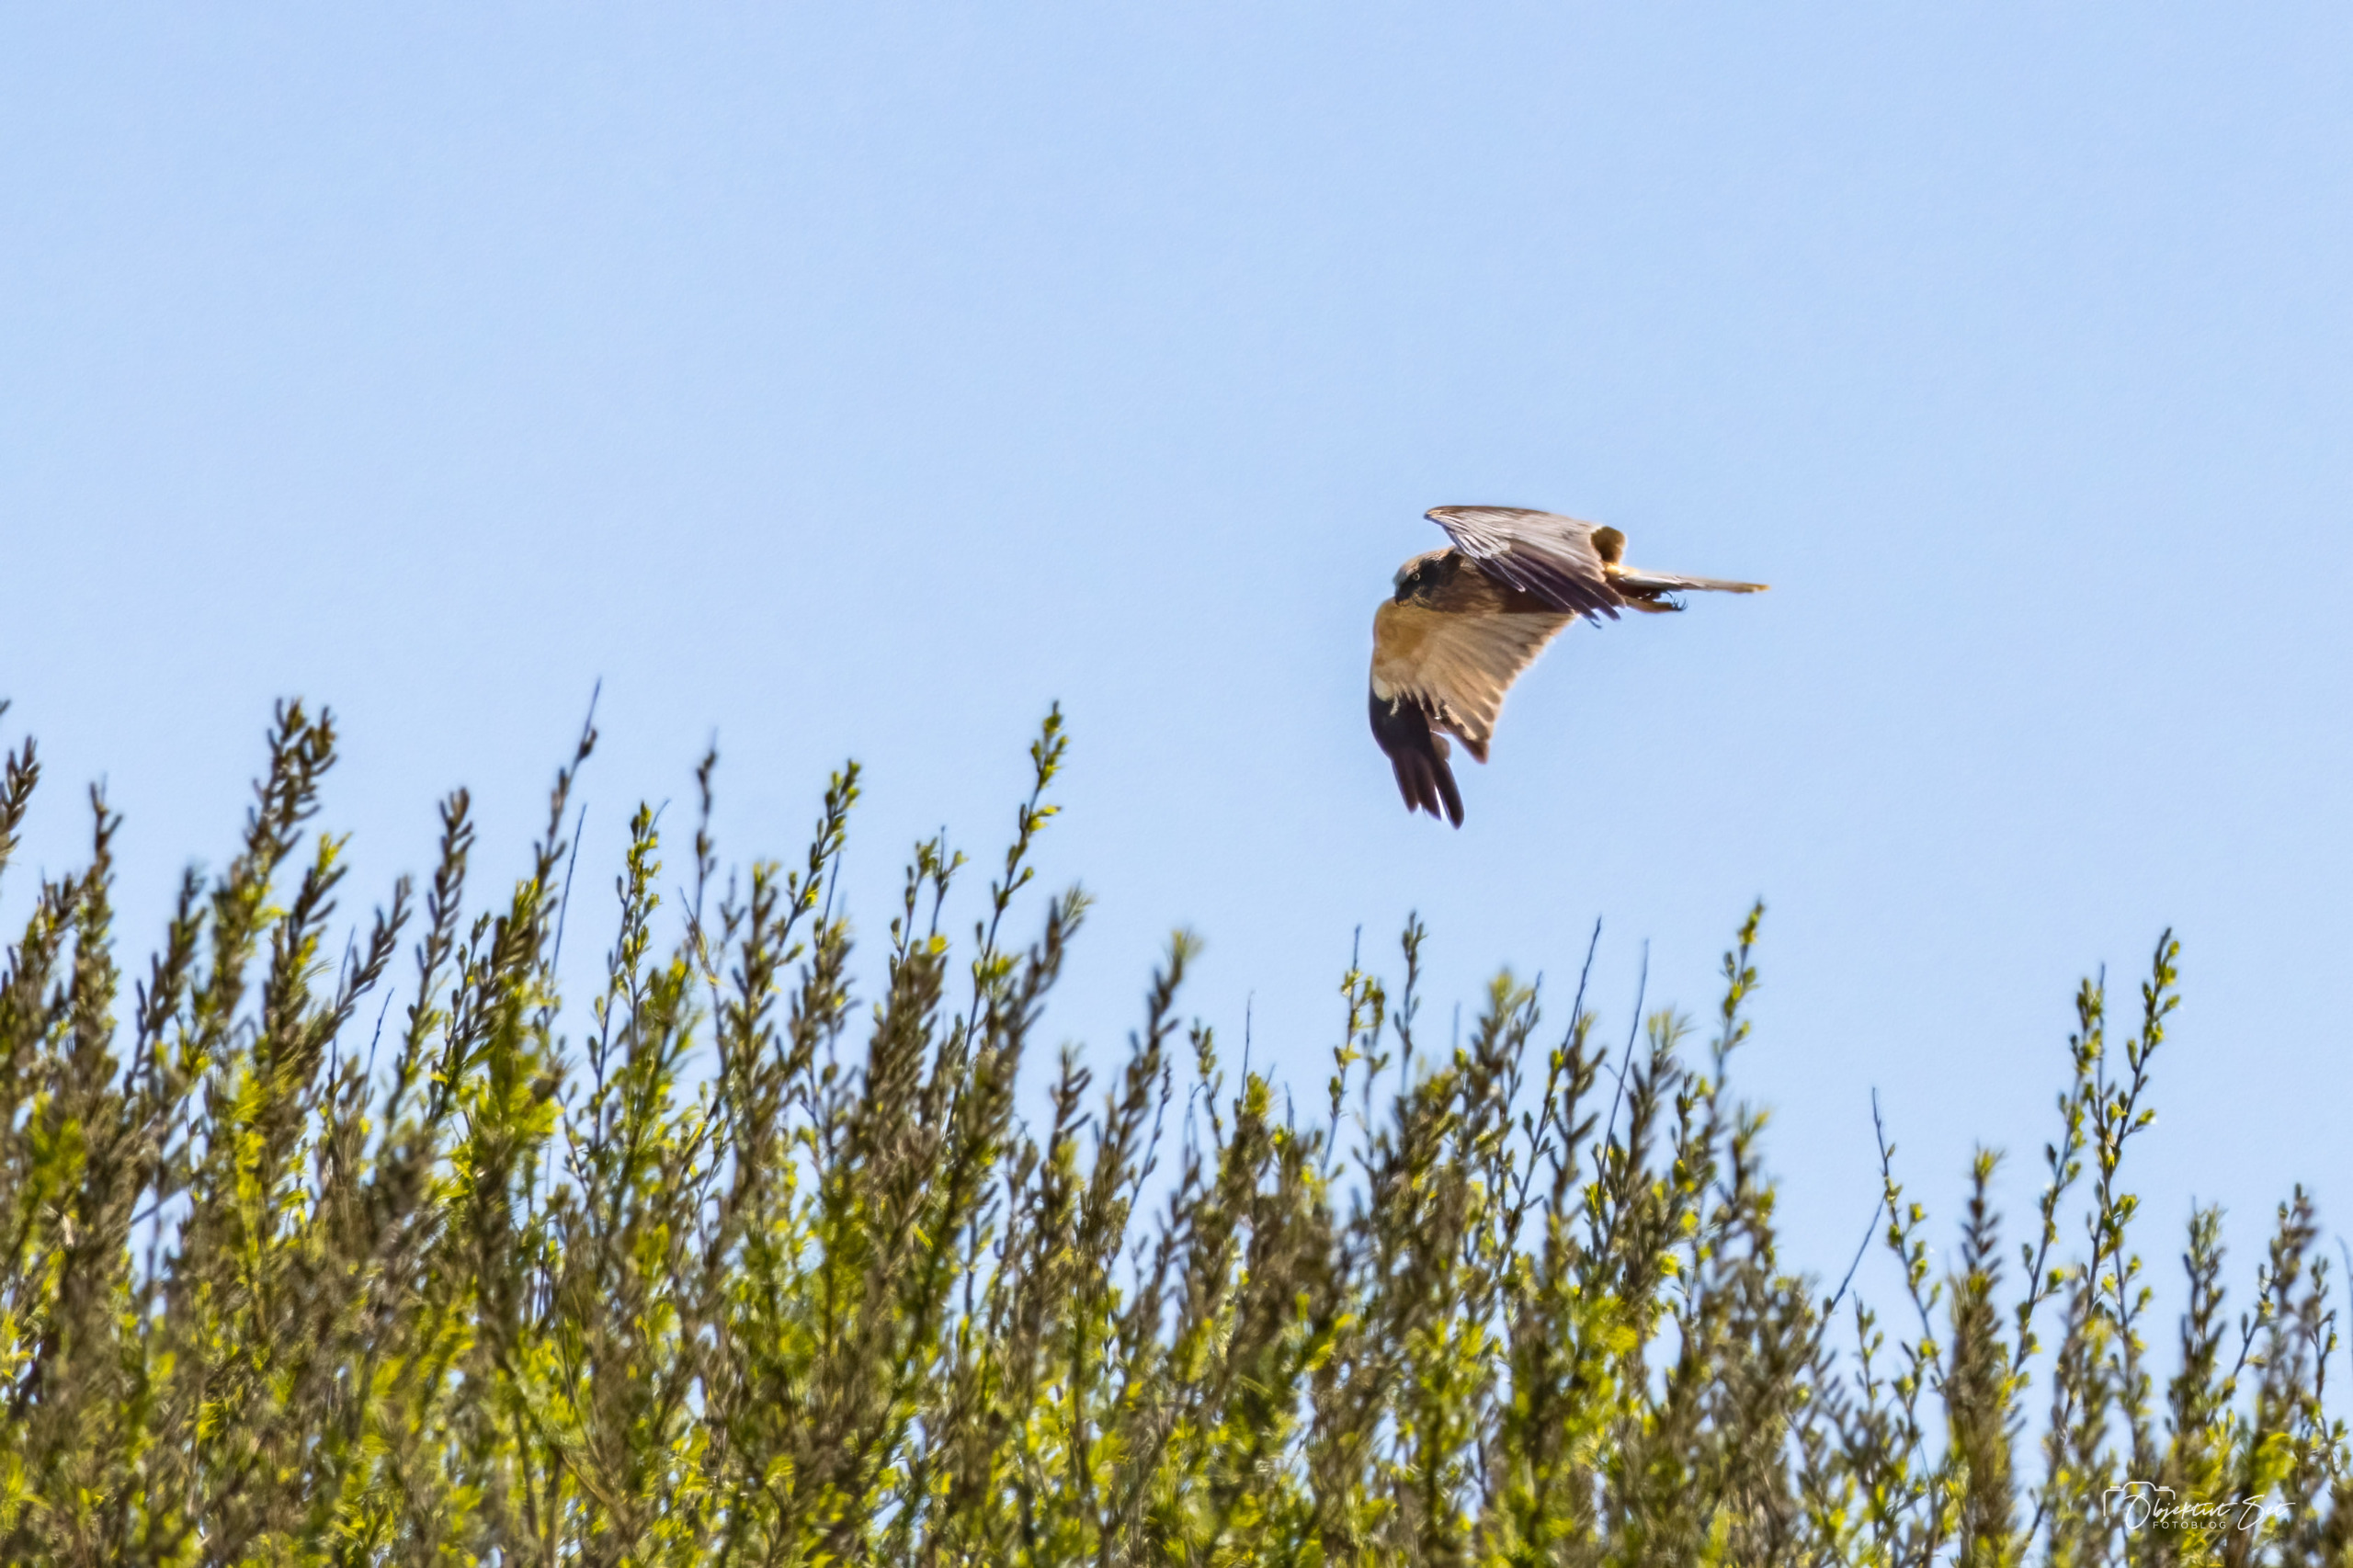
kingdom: Animalia
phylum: Chordata
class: Aves
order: Accipitriformes
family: Accipitridae
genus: Circus
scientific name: Circus aeruginosus
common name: Rørhøg
